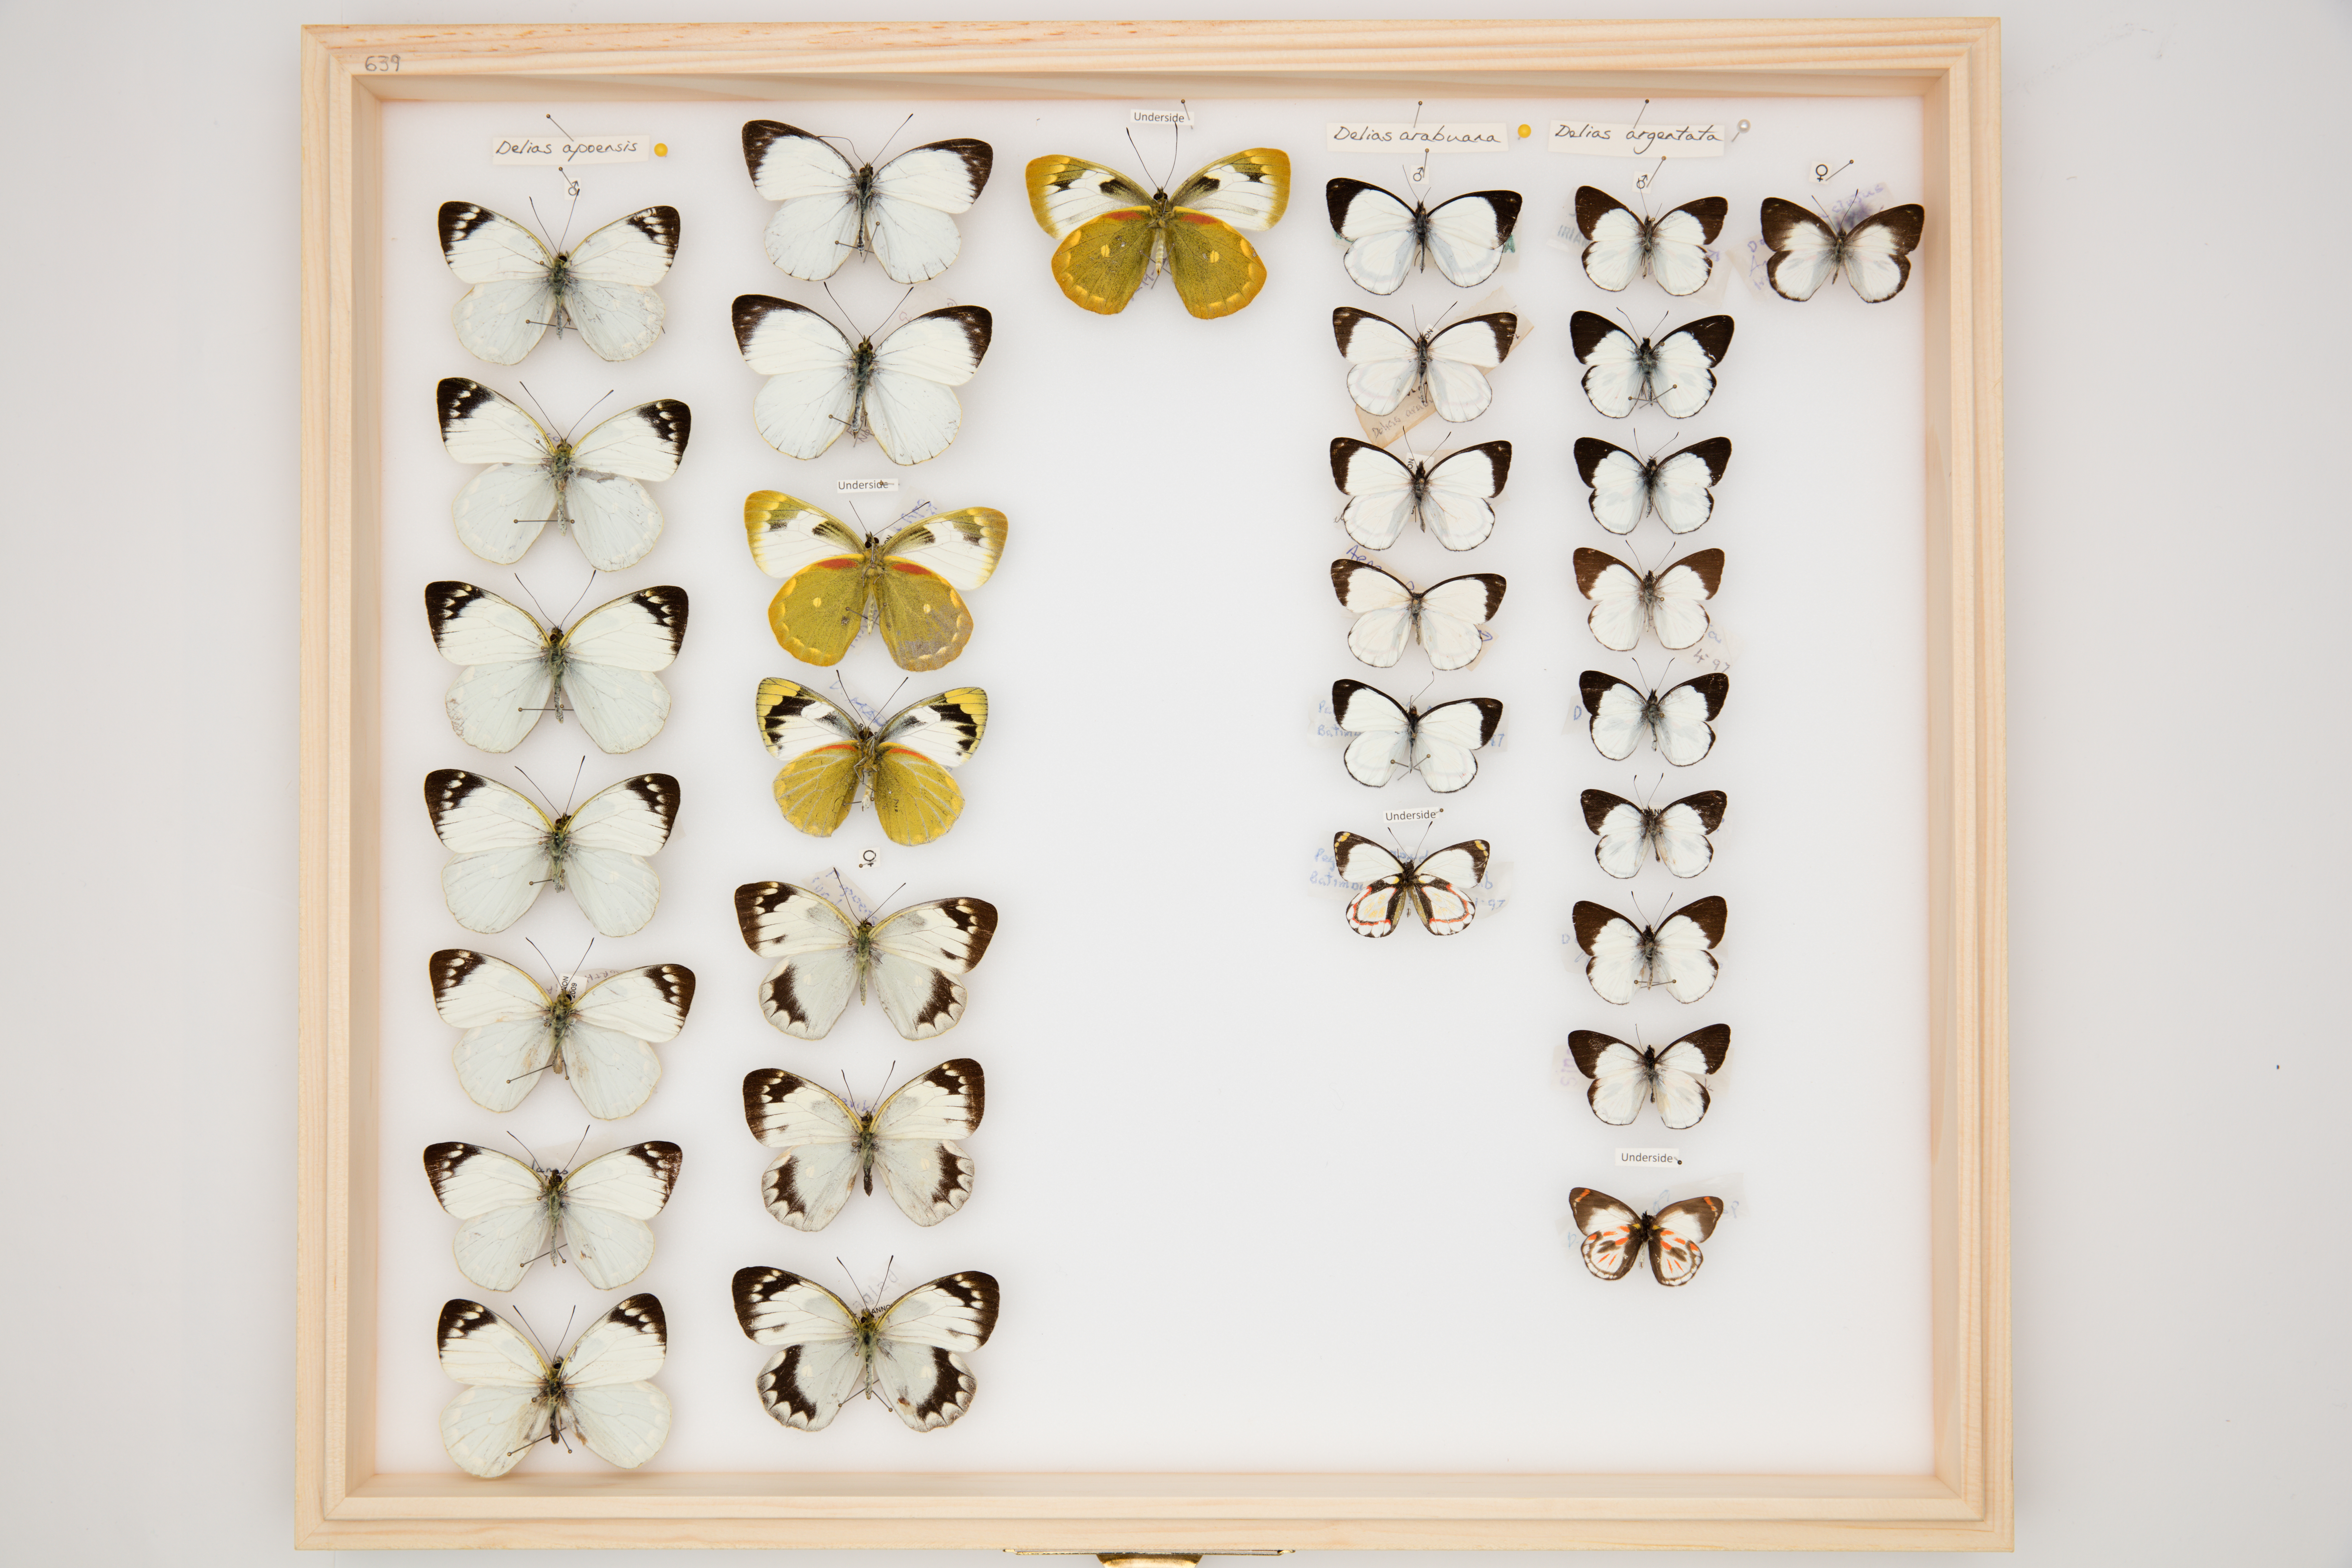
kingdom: Animalia
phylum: Arthropoda
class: Insecta
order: Lepidoptera
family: Pieridae
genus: Delias
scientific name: Delias
